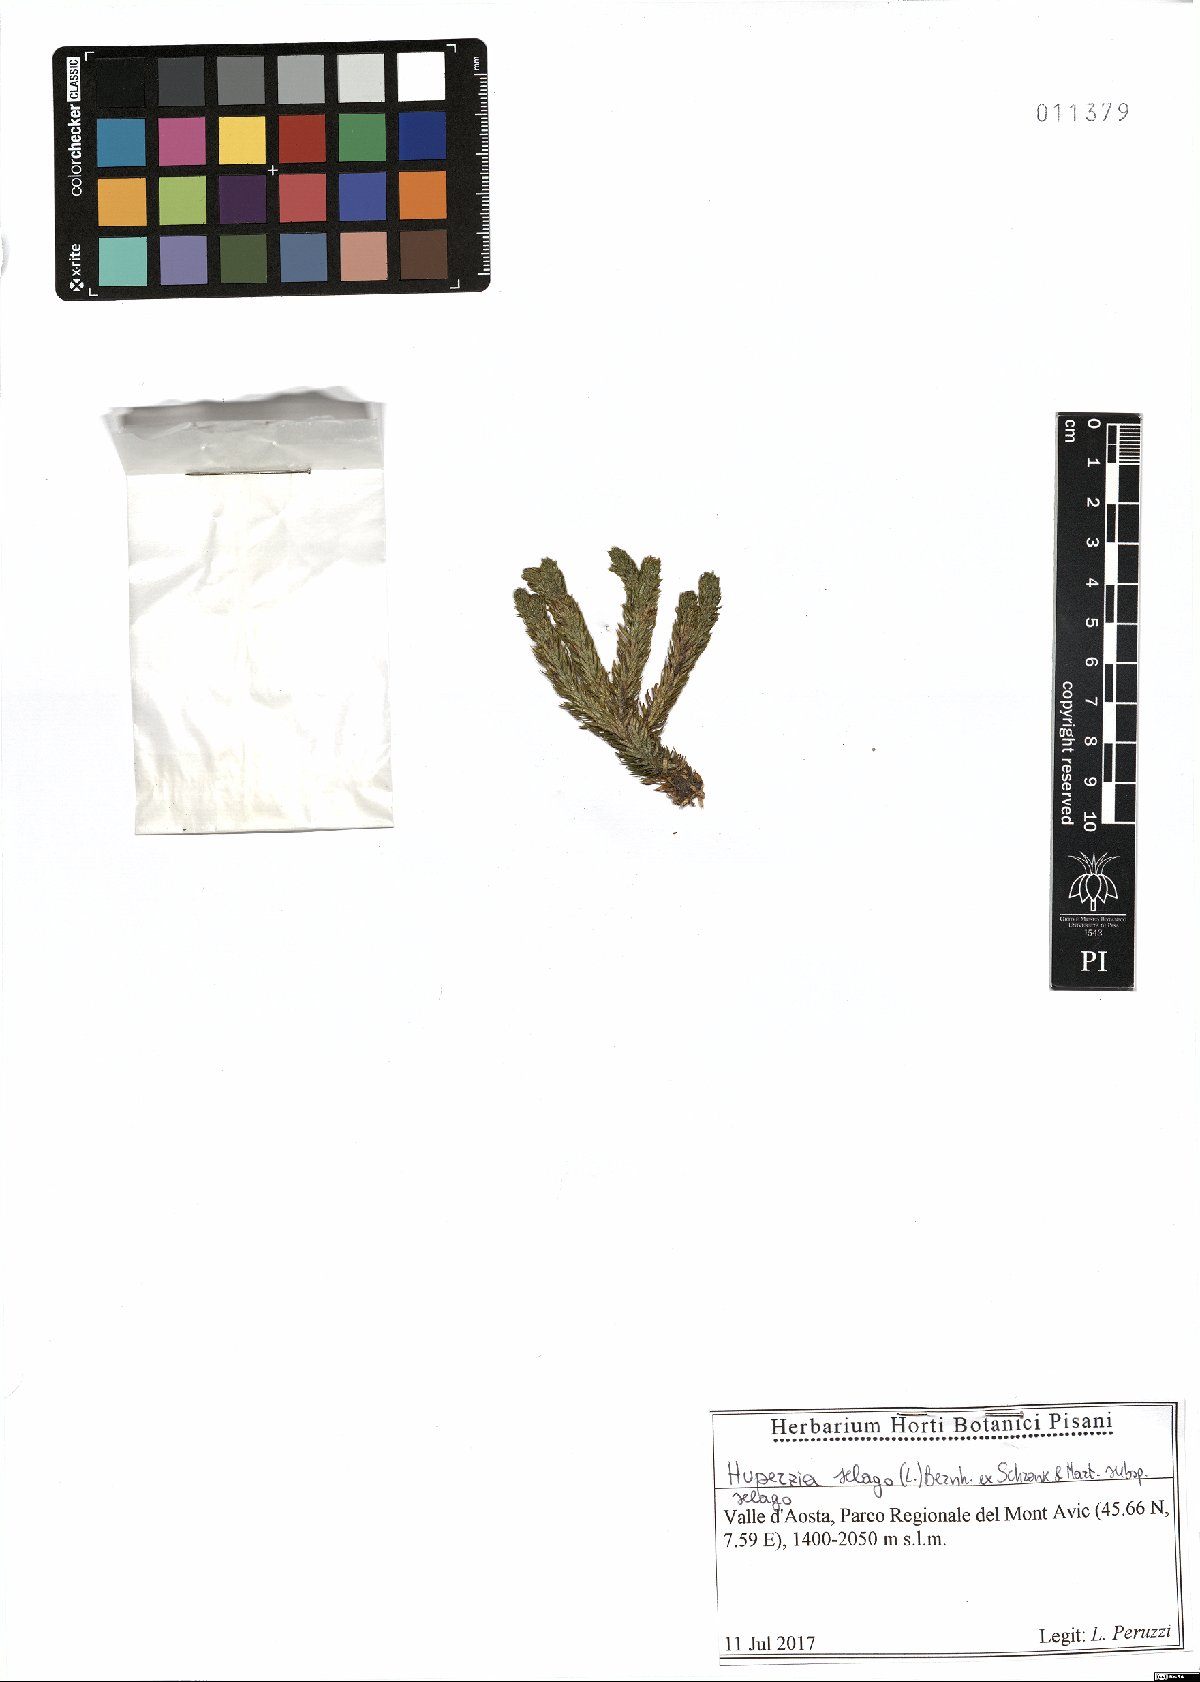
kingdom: Plantae
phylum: Tracheophyta
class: Lycopodiopsida
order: Lycopodiales
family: Lycopodiaceae
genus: Huperzia
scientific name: Huperzia selago
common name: Northern firmoss
